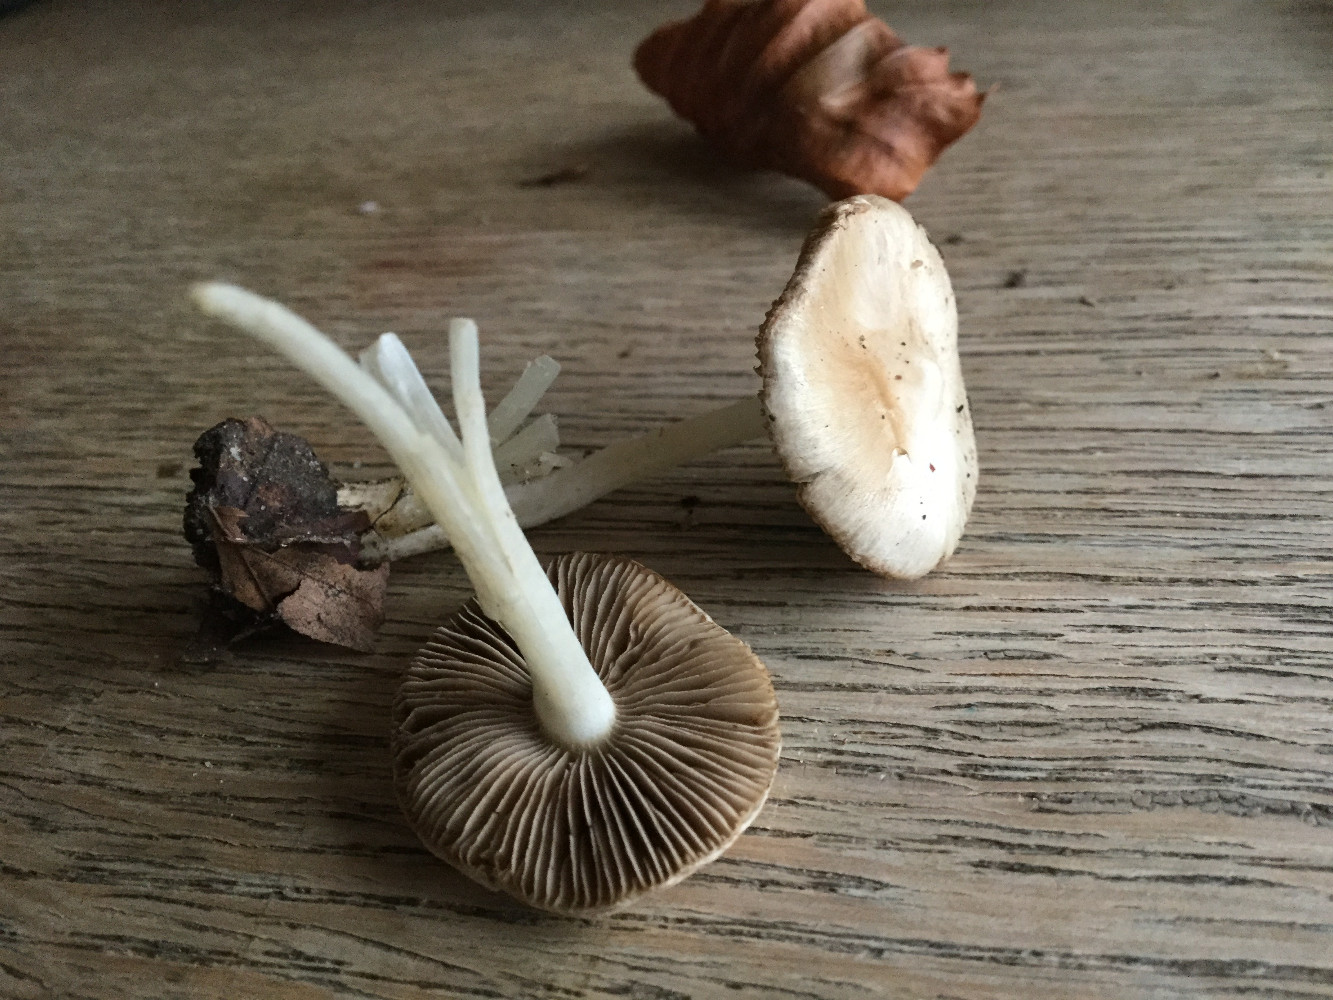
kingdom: Fungi
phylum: Basidiomycota
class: Agaricomycetes
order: Agaricales
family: Inocybaceae
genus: Inocybe
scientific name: Inocybe
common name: almindelig trævlhat
